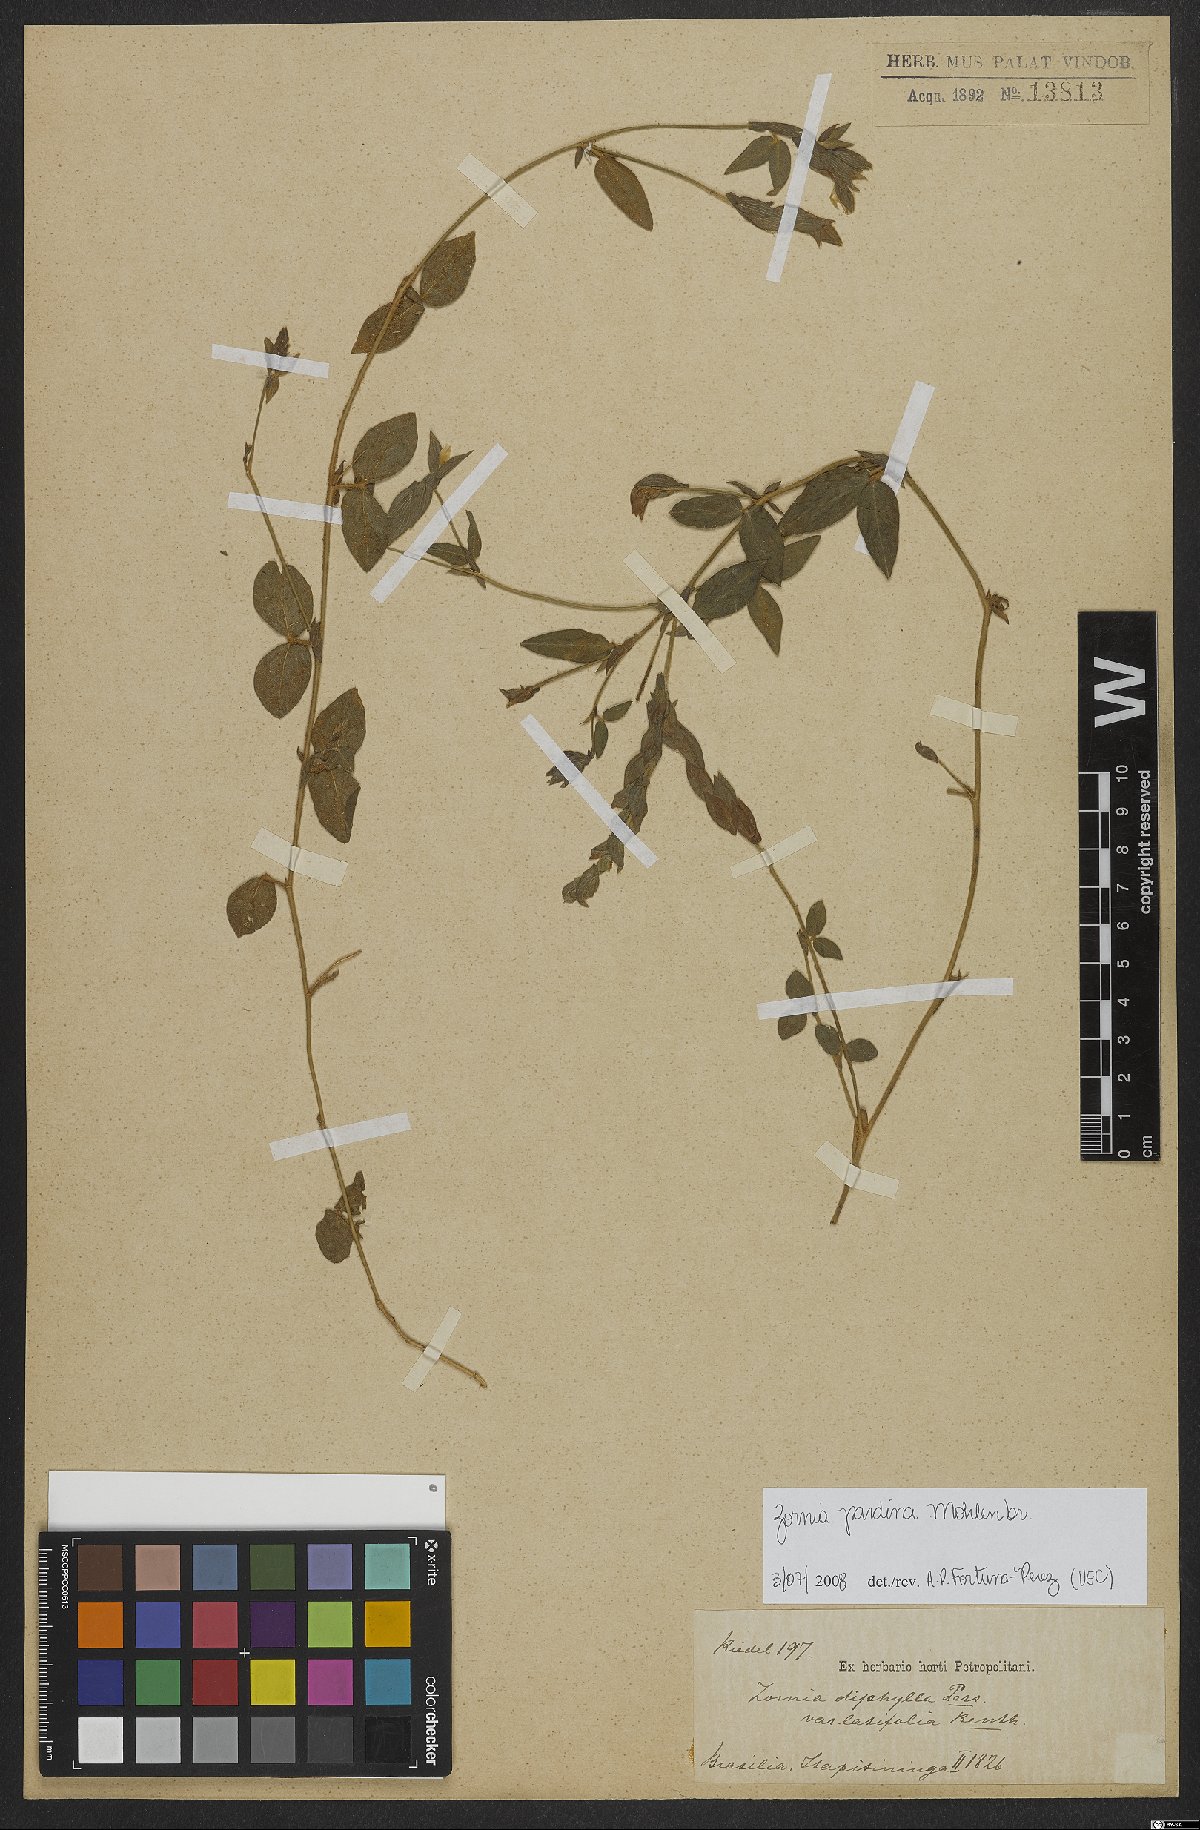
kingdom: Plantae
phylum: Tracheophyta
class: Magnoliopsida
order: Fabales
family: Fabaceae
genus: Zornia
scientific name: Zornia pardina
